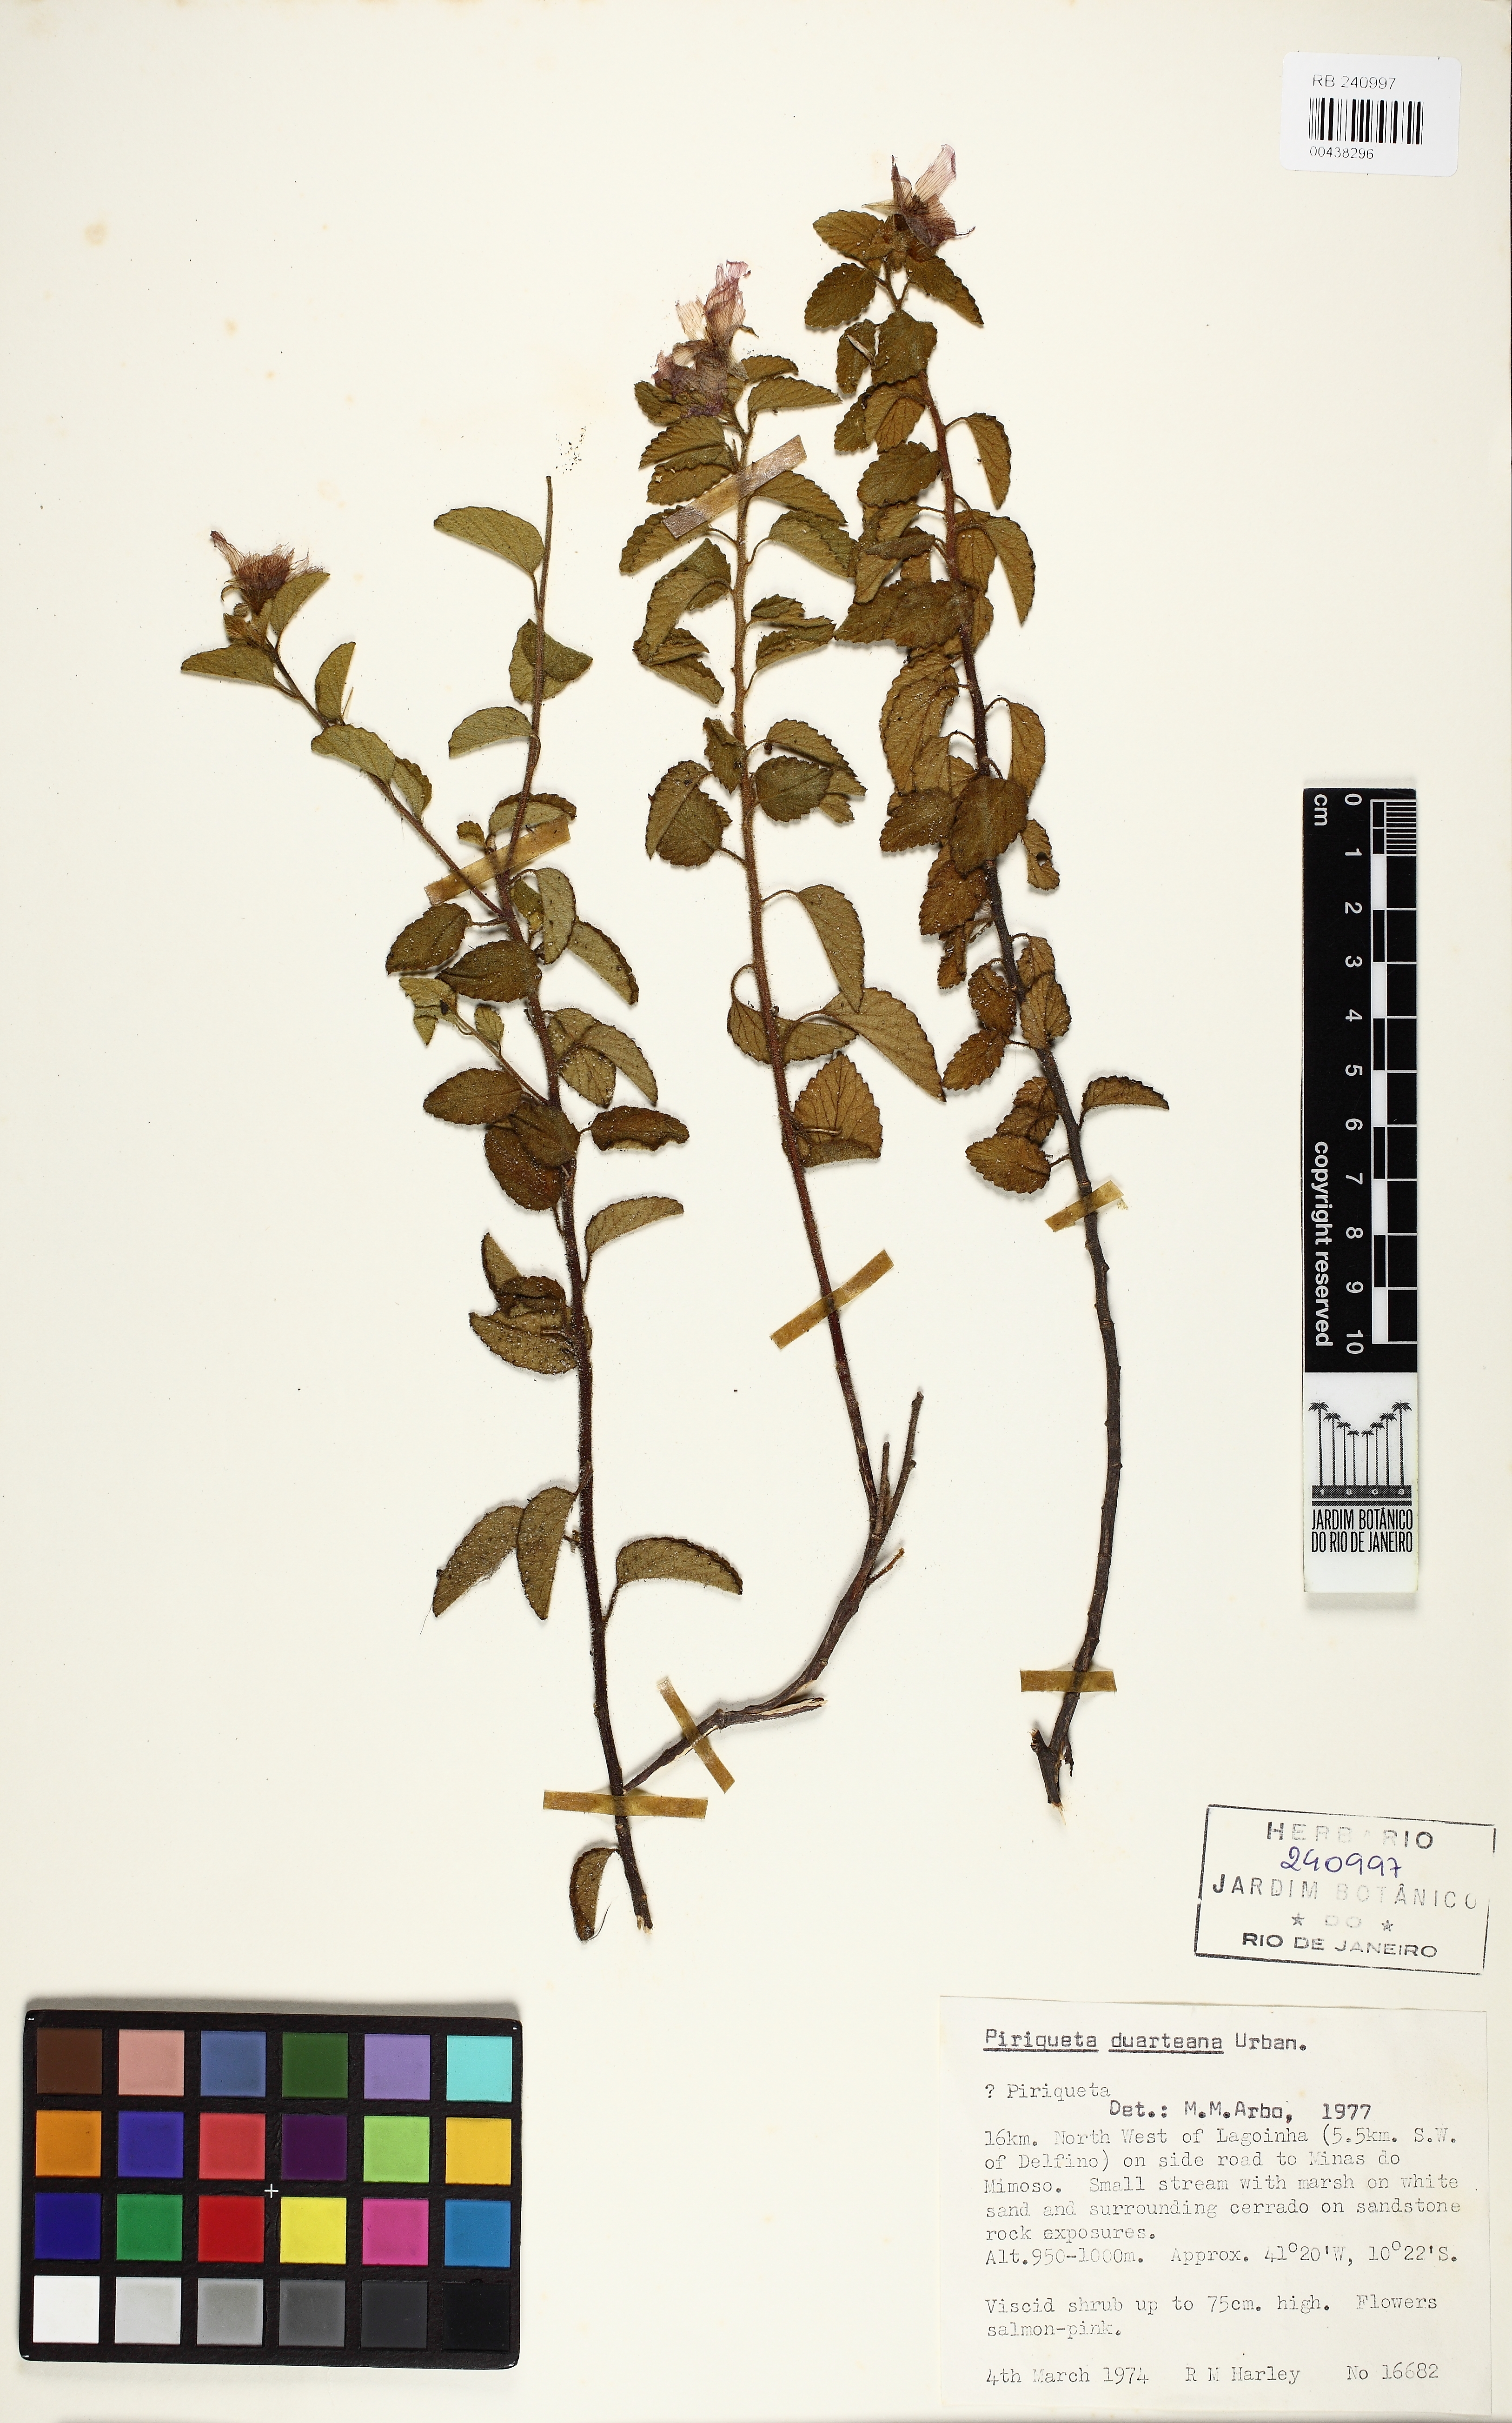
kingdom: Plantae
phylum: Tracheophyta
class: Magnoliopsida
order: Malpighiales
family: Turneraceae
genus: Piriqueta
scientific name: Piriqueta duarteana
